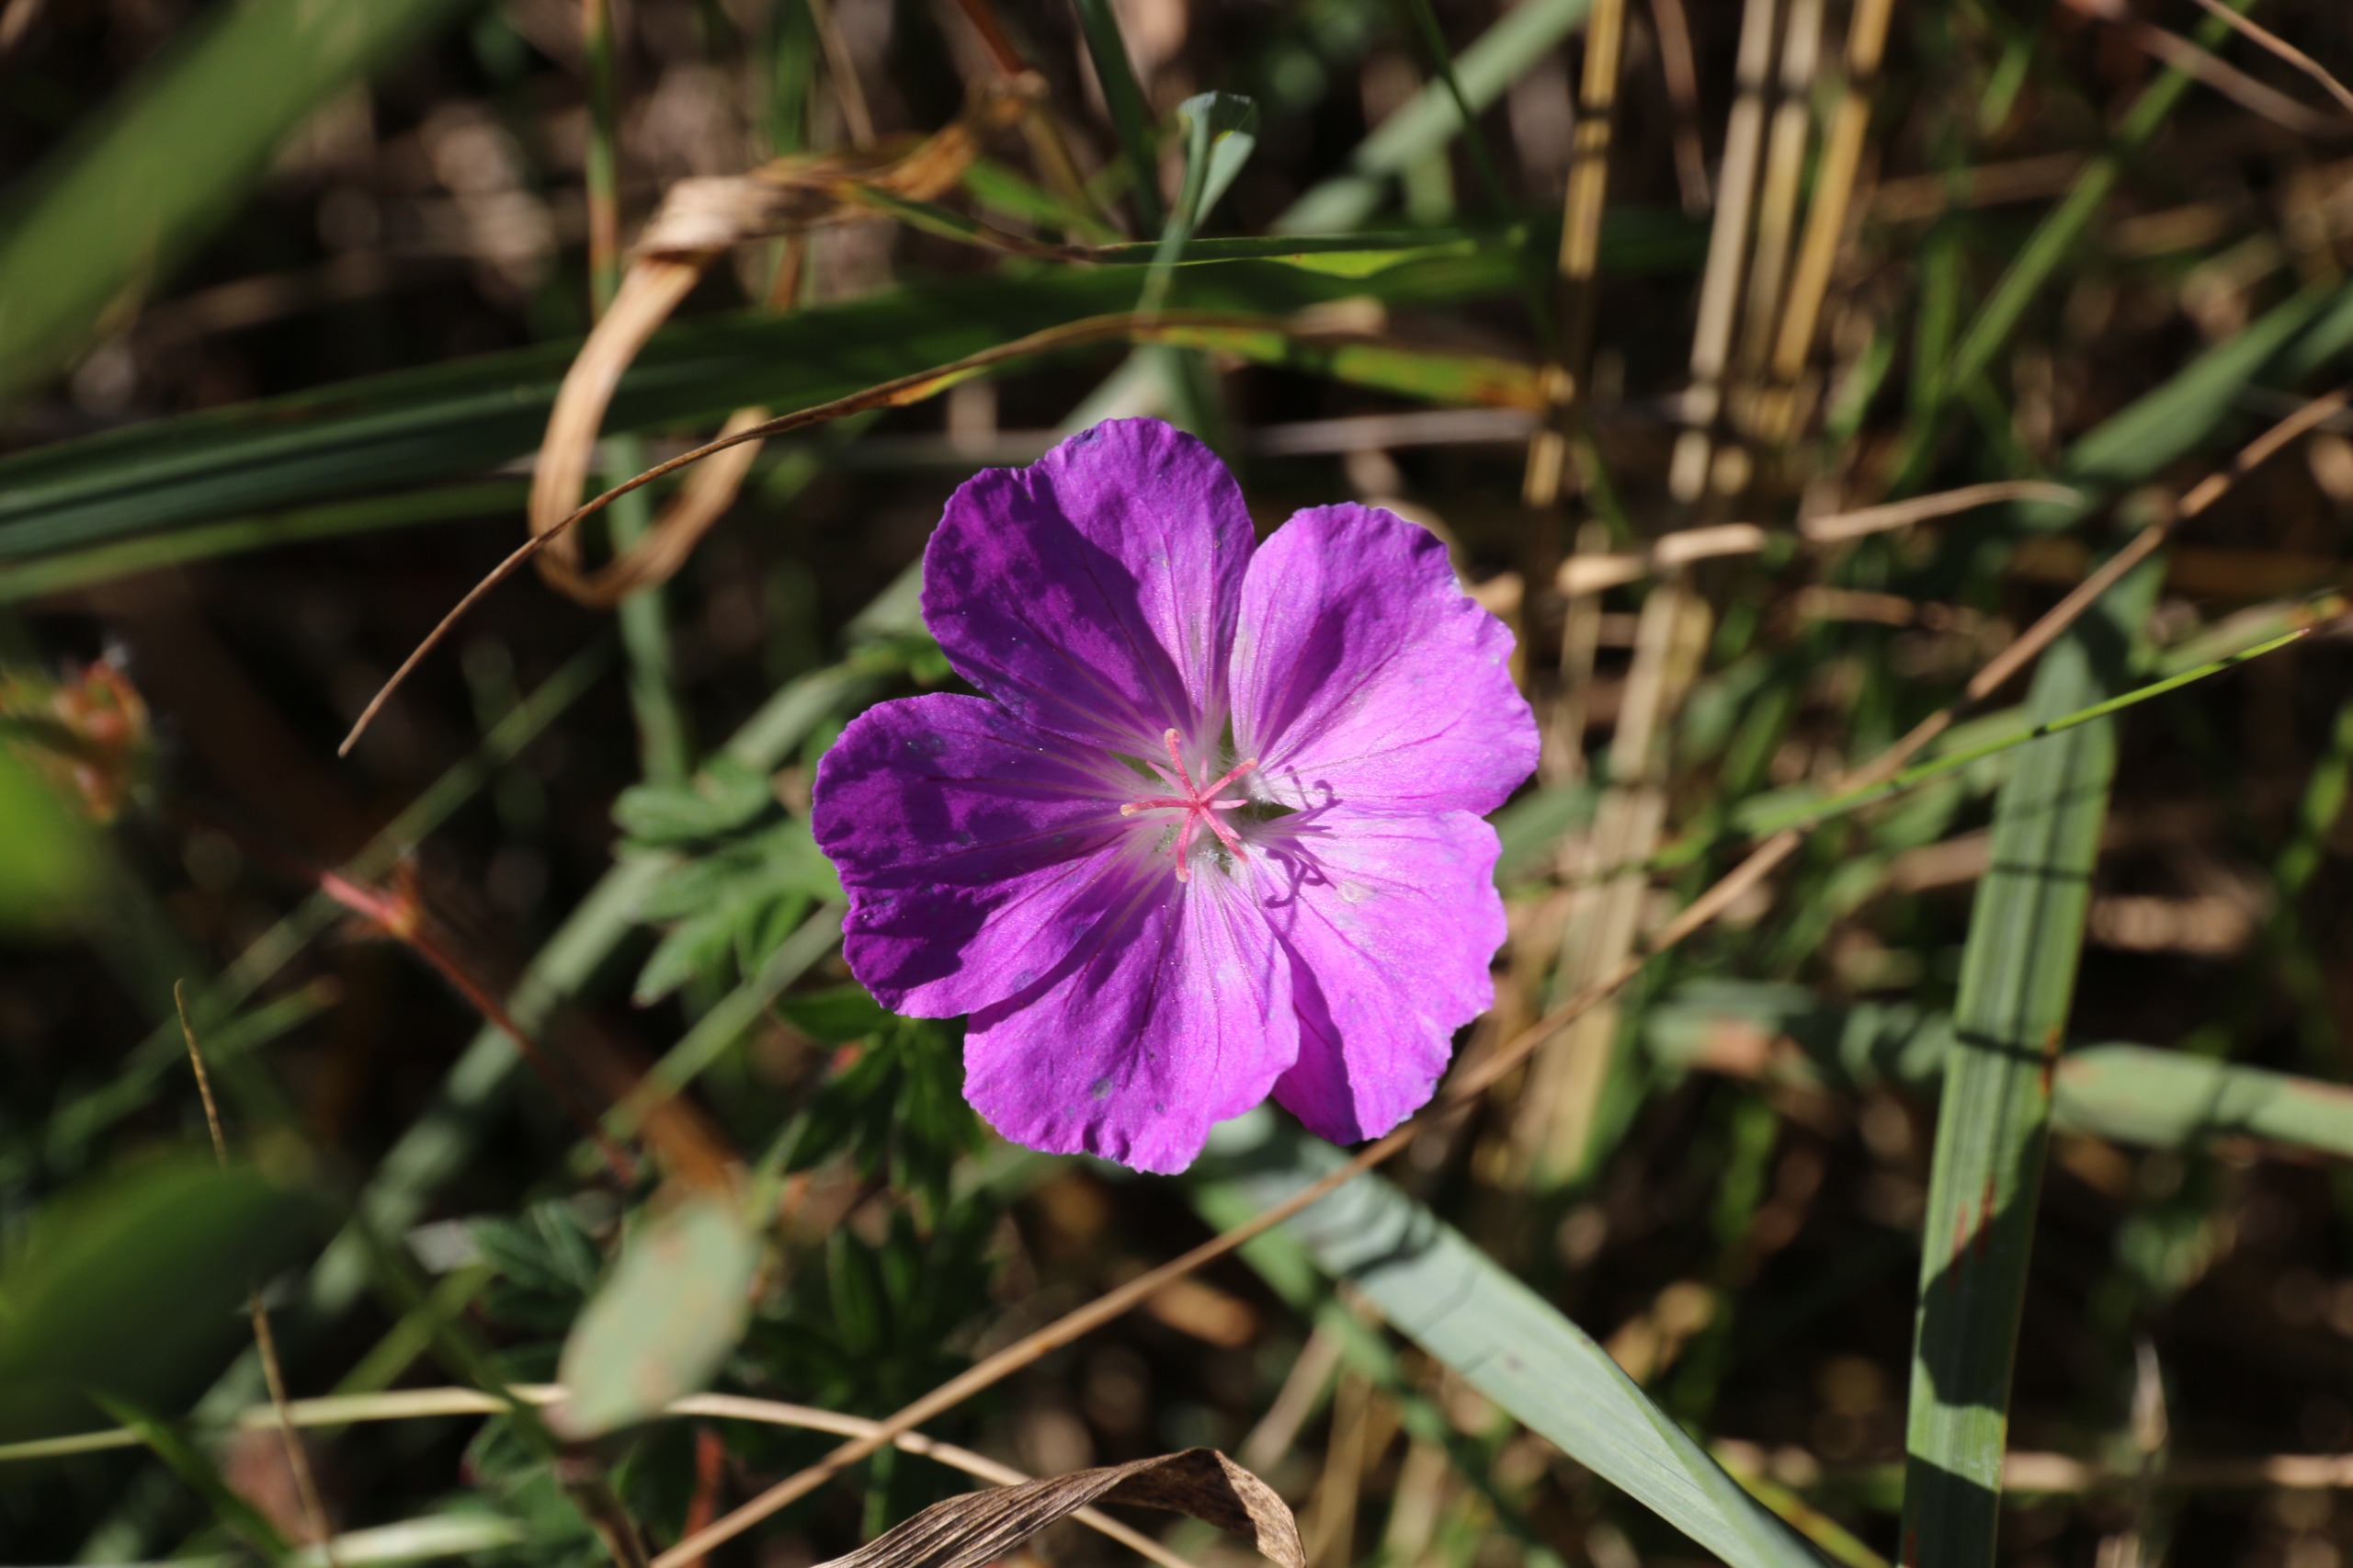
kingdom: Plantae
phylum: Tracheophyta
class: Magnoliopsida
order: Geraniales
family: Geraniaceae
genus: Geranium
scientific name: Geranium sanguineum
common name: Blodrød storkenæb
